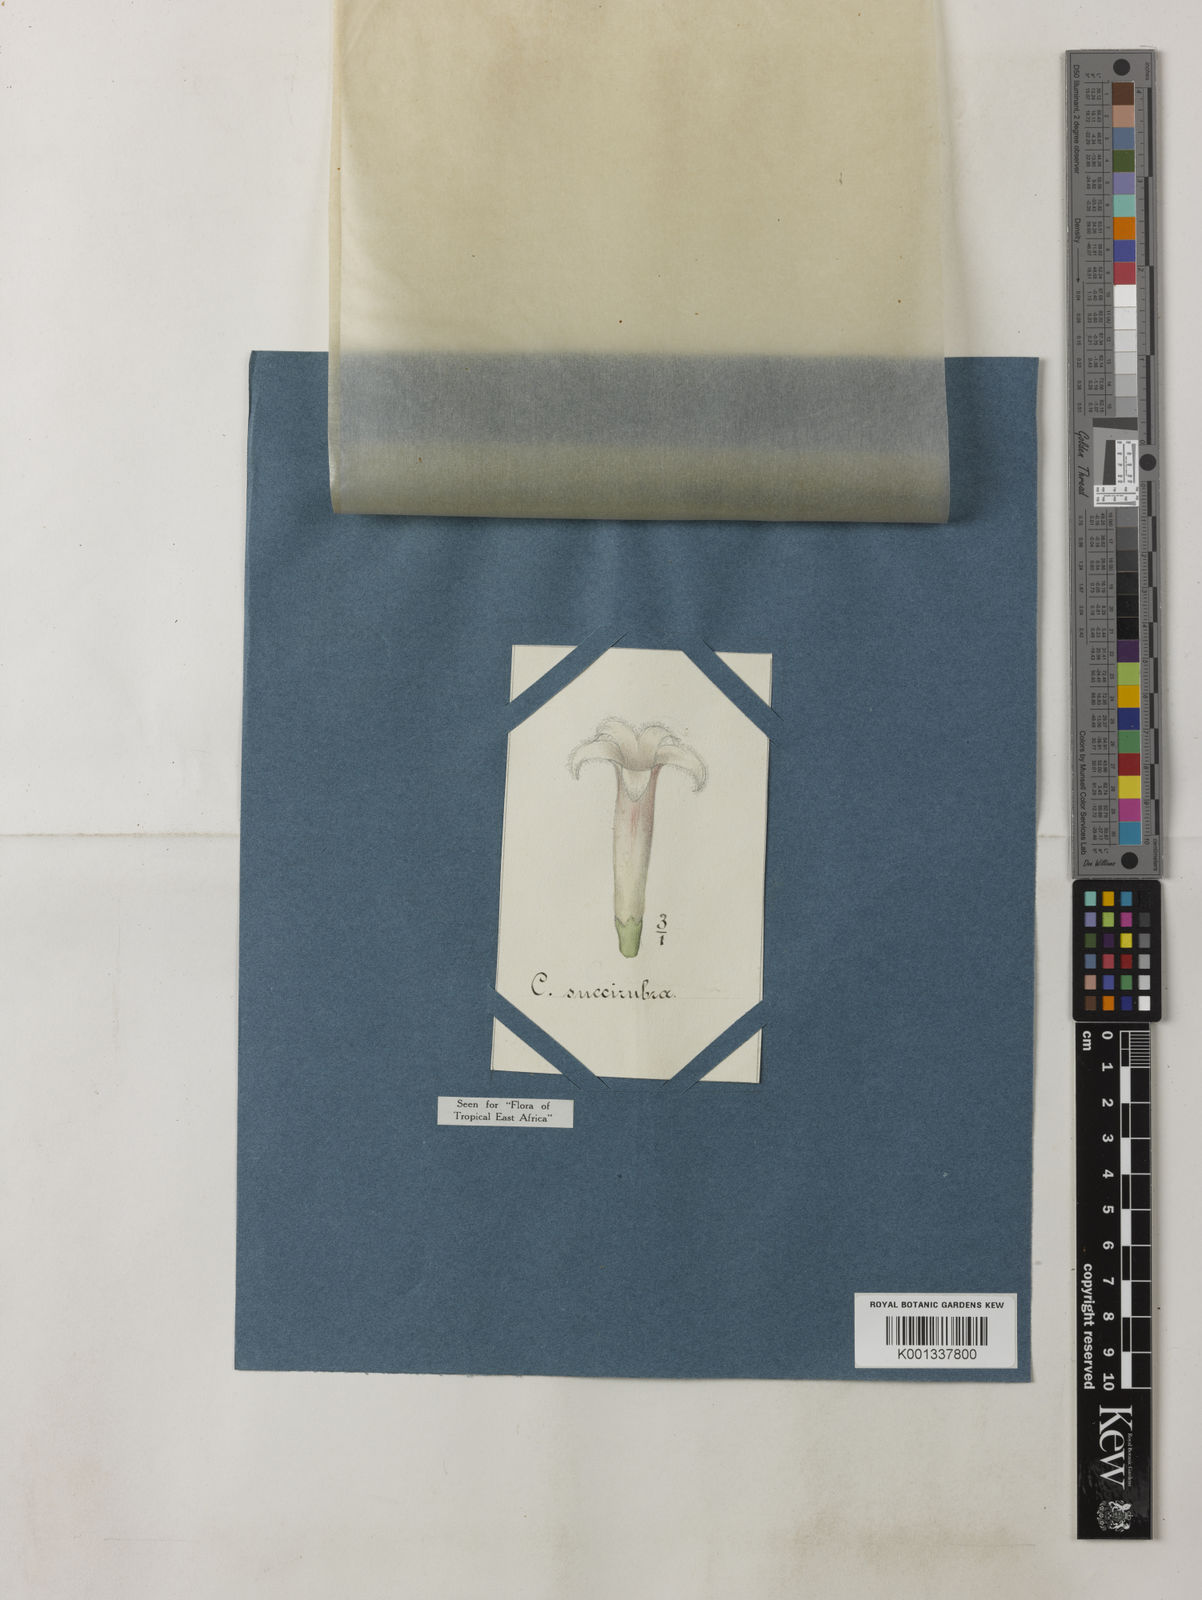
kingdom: Plantae
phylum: Tracheophyta
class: Magnoliopsida
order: Gentianales
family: Rubiaceae
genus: Cinchona
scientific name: Cinchona pubescens
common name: Quinine
